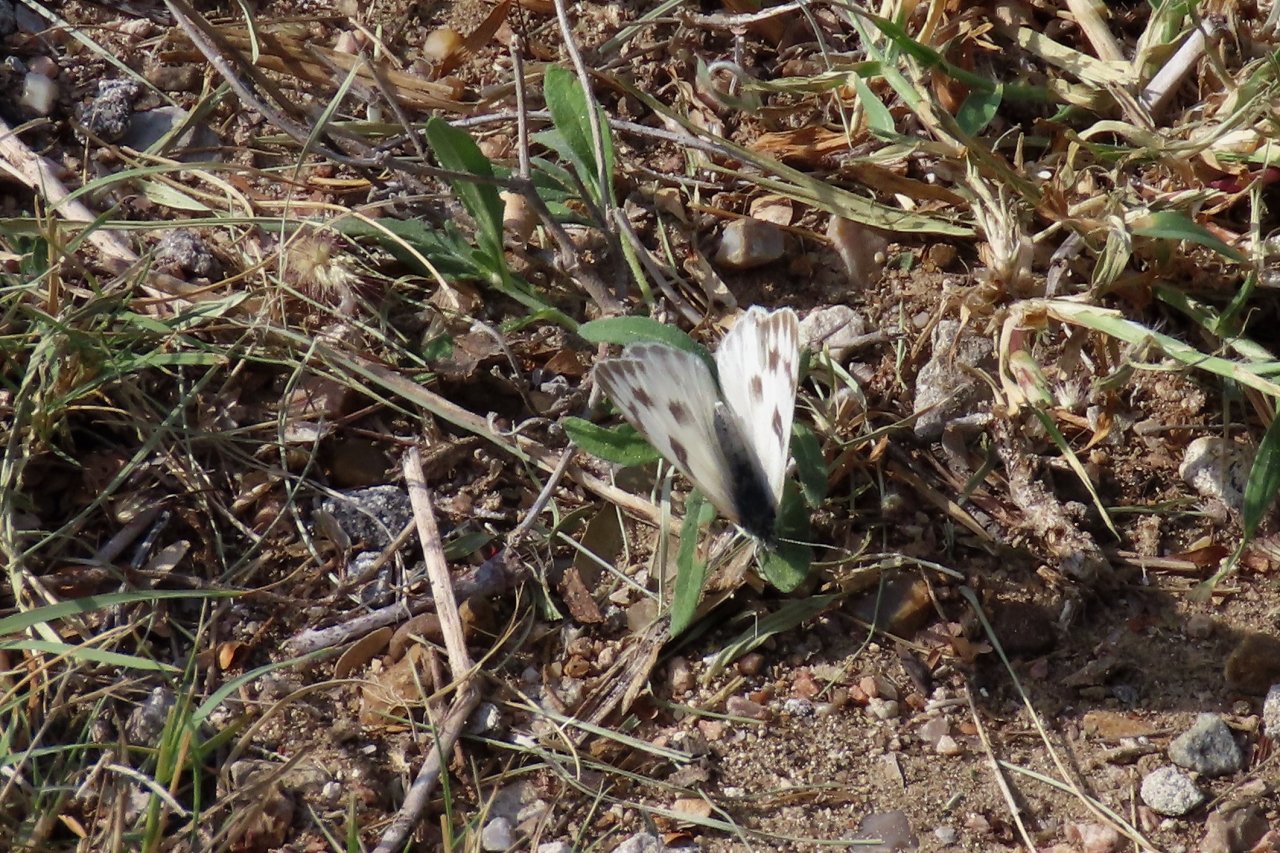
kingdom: Animalia
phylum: Arthropoda
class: Insecta
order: Lepidoptera
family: Pieridae
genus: Pontia
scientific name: Pontia protodice
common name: Checkered White
